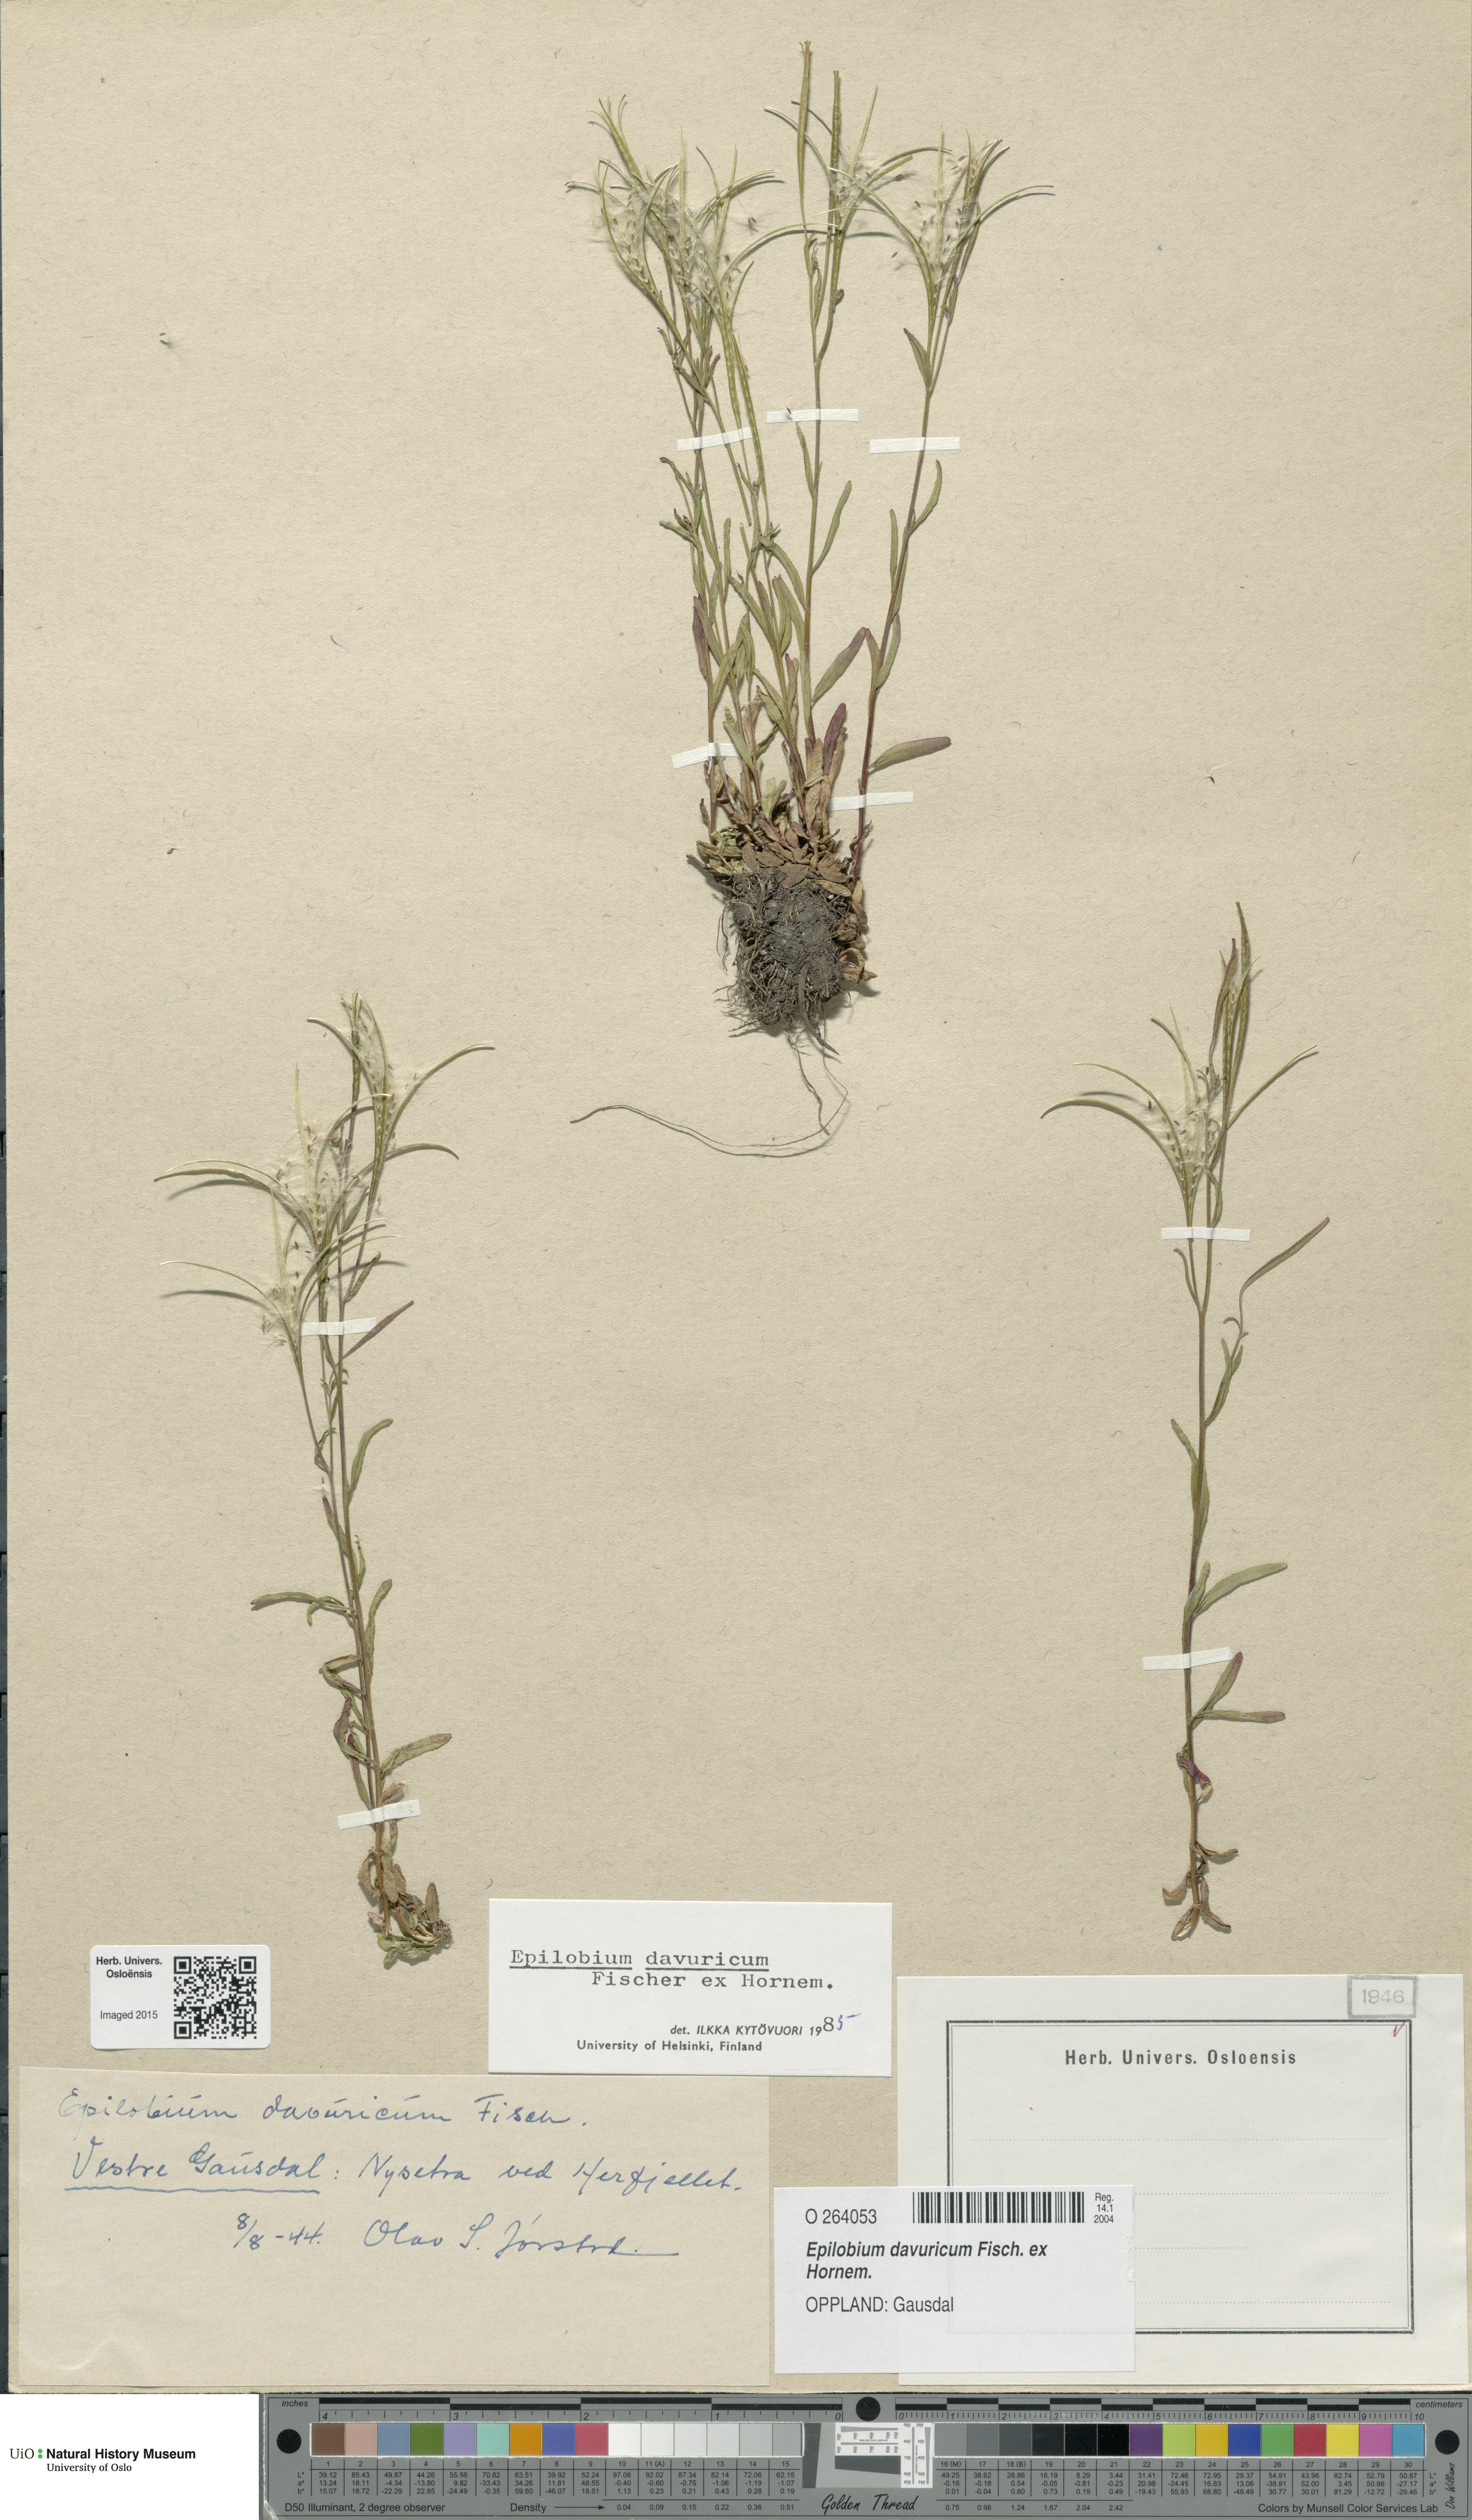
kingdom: Plantae
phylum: Tracheophyta
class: Magnoliopsida
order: Myrtales
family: Onagraceae
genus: Epilobium
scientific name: Epilobium davuricum
